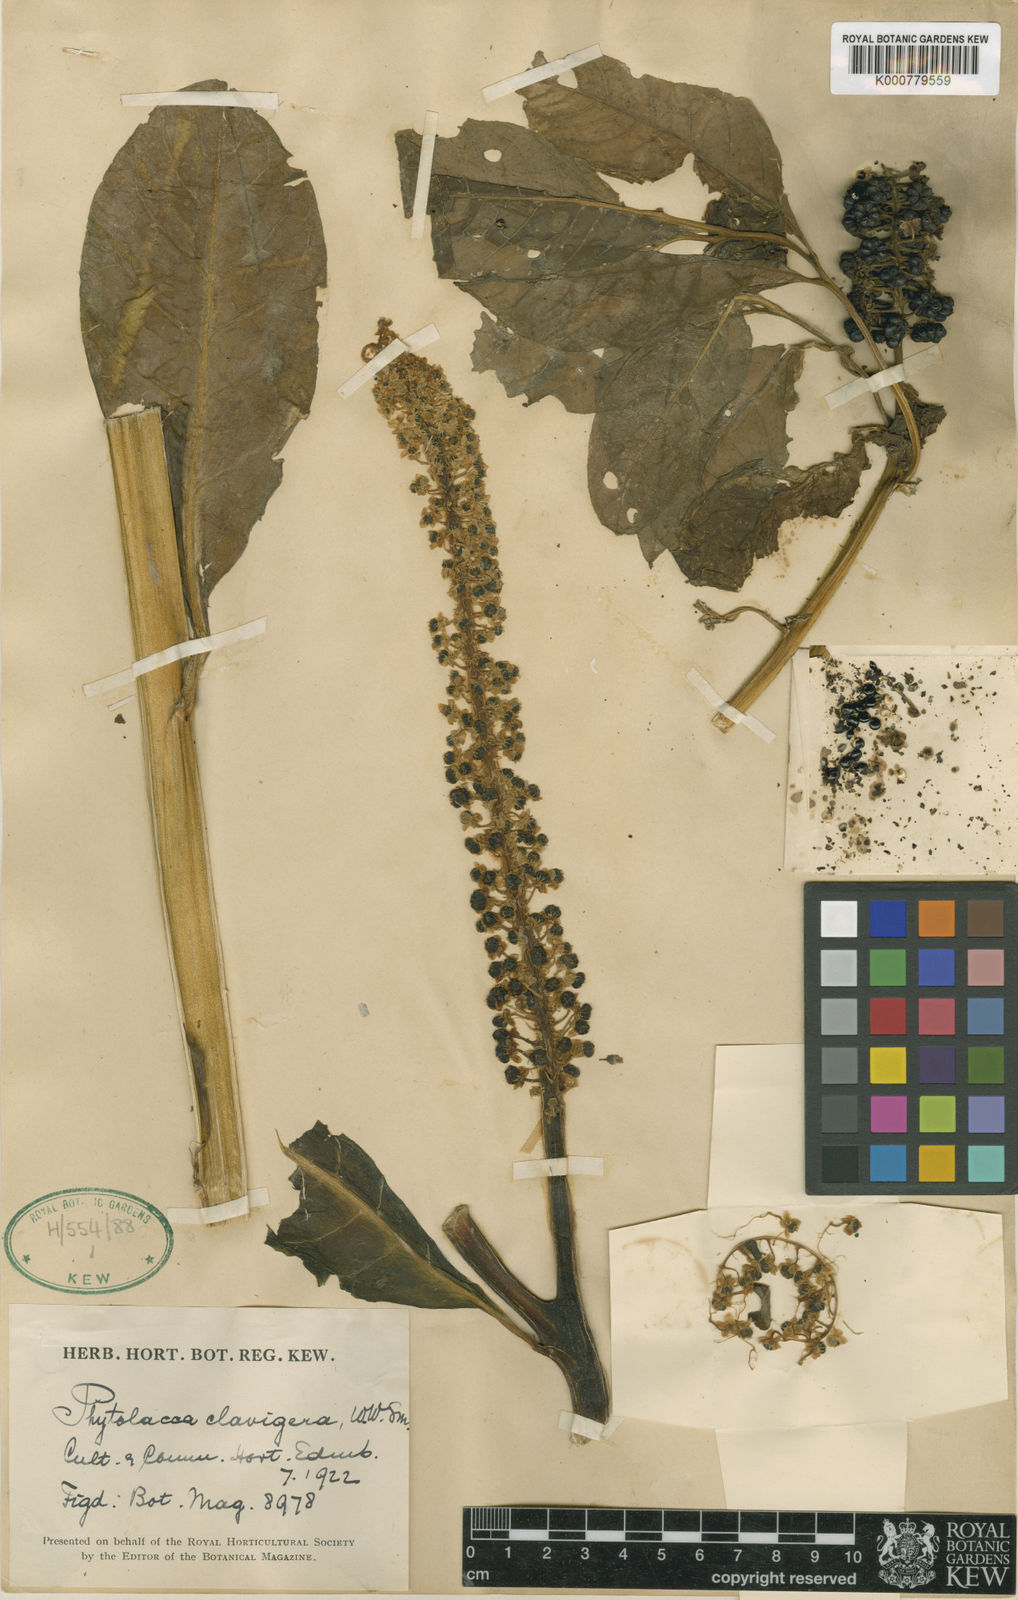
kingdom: Plantae
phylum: Tracheophyta
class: Magnoliopsida
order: Caryophyllales
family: Phytolaccaceae
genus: Phytolacca
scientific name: Phytolacca polyandra
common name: Chinese pokeweed
